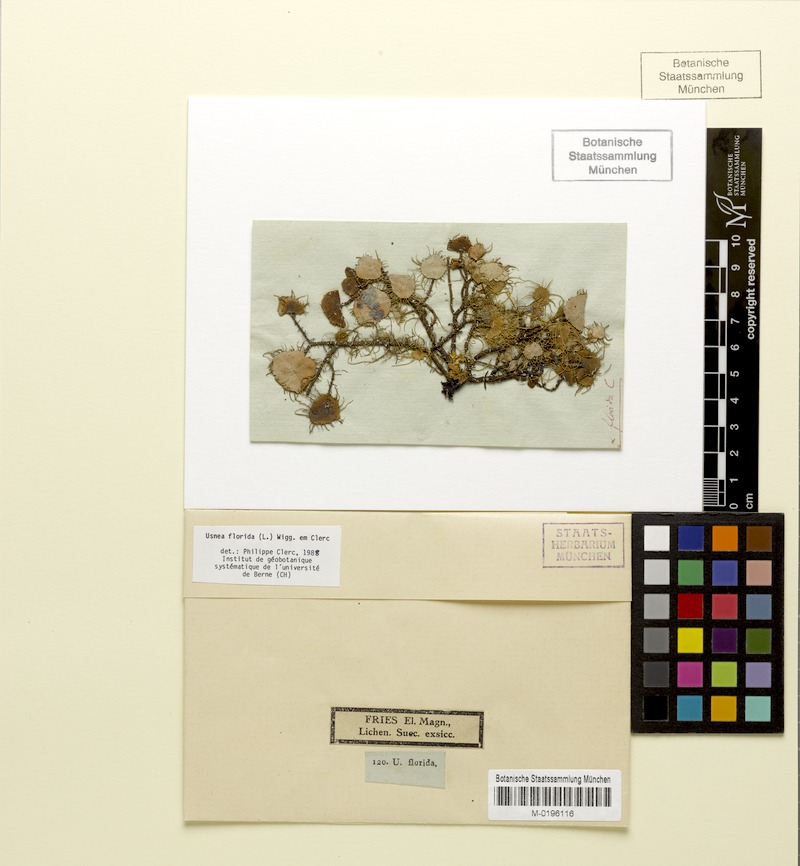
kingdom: Fungi
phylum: Ascomycota
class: Lecanoromycetes
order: Lecanorales
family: Parmeliaceae
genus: Usnea
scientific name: Usnea florida
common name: Witches' whiskers lichen
